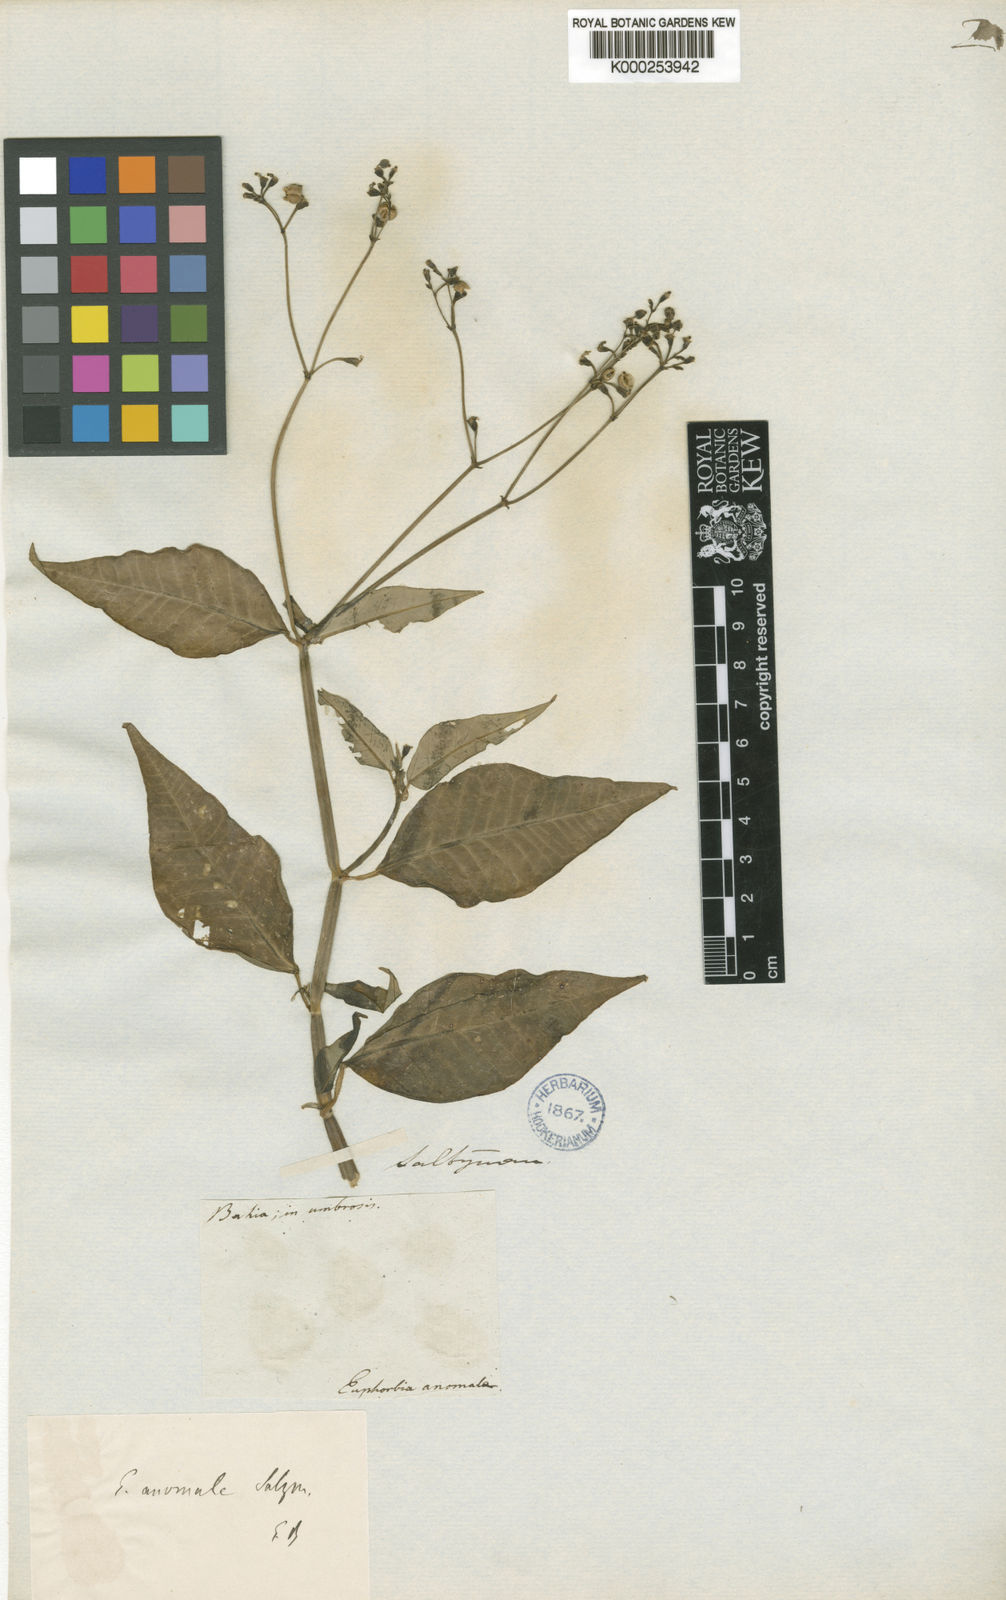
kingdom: Plantae
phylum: Tracheophyta
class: Magnoliopsida
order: Malpighiales
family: Euphorbiaceae
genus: Euphorbia
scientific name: Euphorbia insulana
